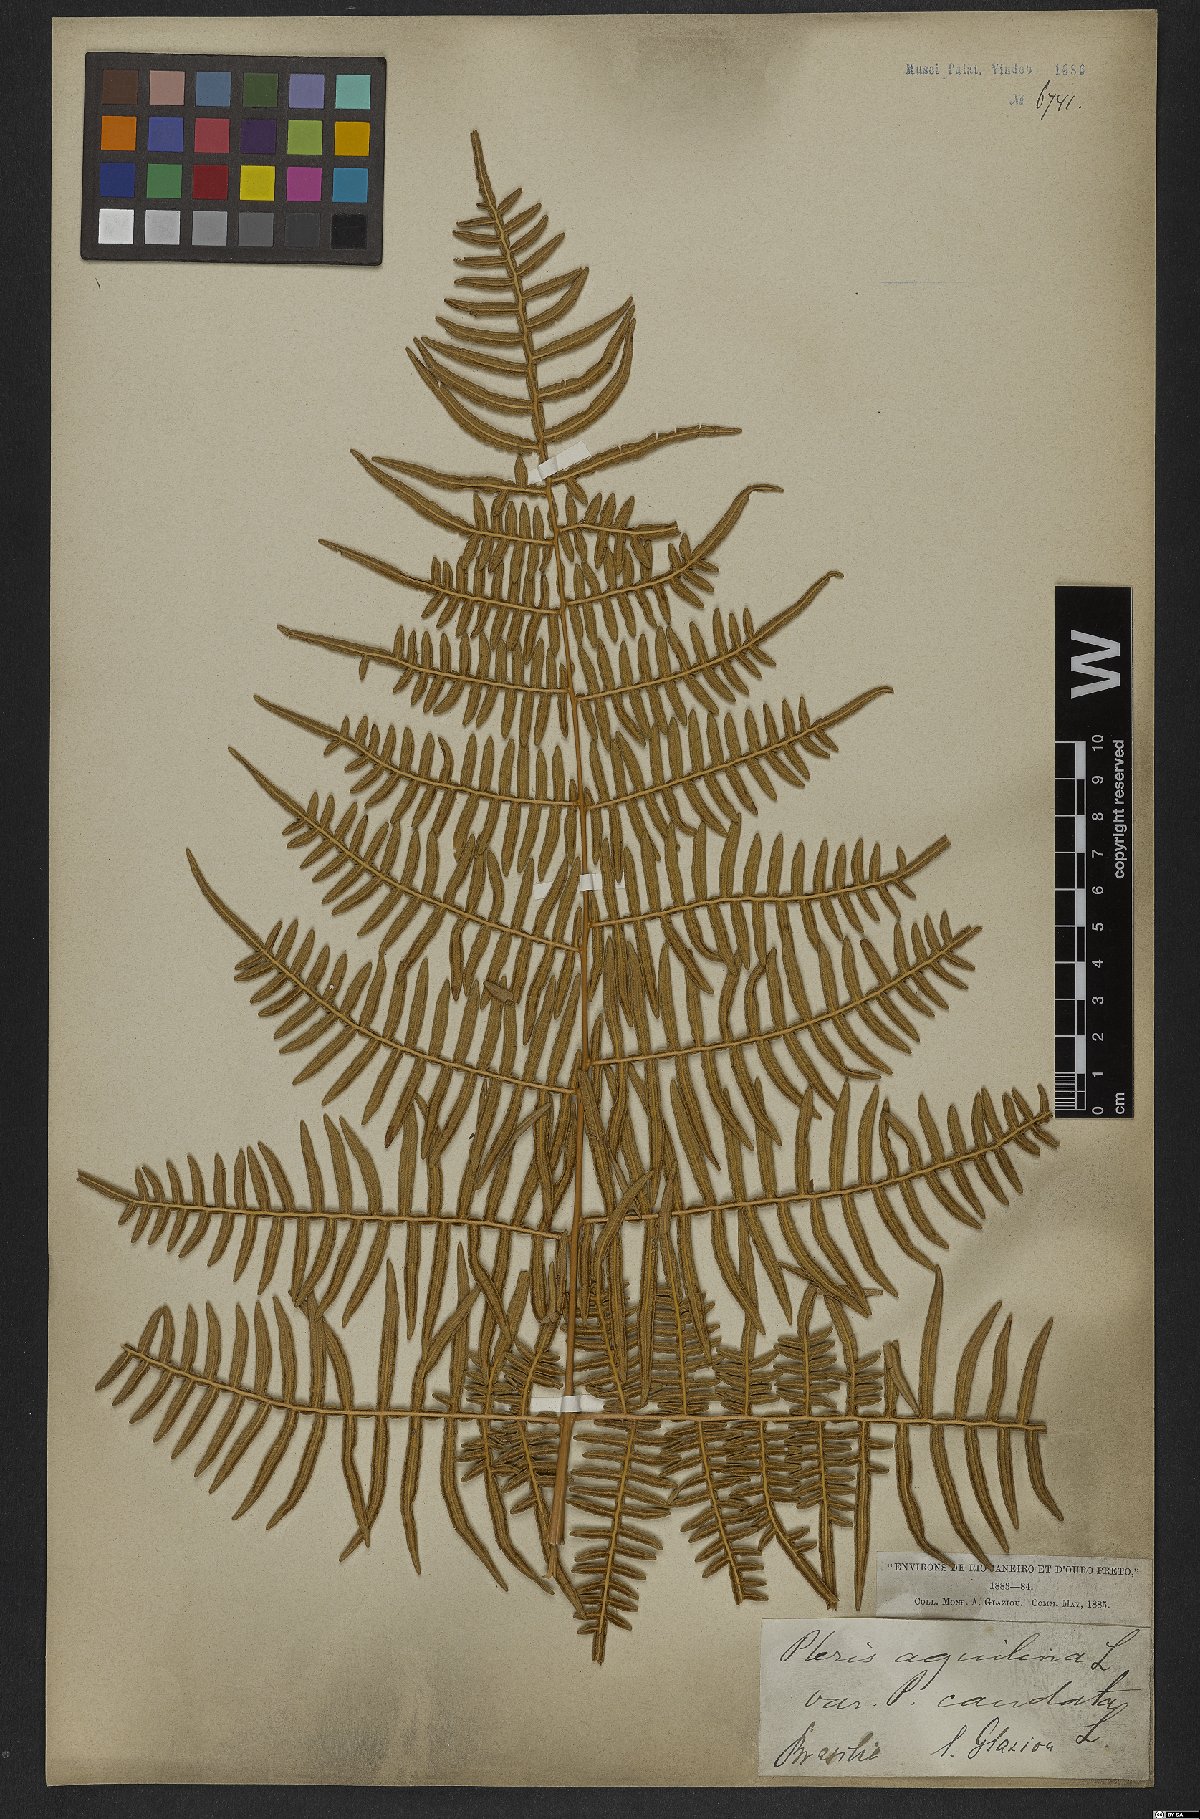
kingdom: Plantae
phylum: Tracheophyta
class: Polypodiopsida
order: Polypodiales
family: Dennstaedtiaceae
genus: Pteridium
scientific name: Pteridium caudatum
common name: Southern bracken fern
